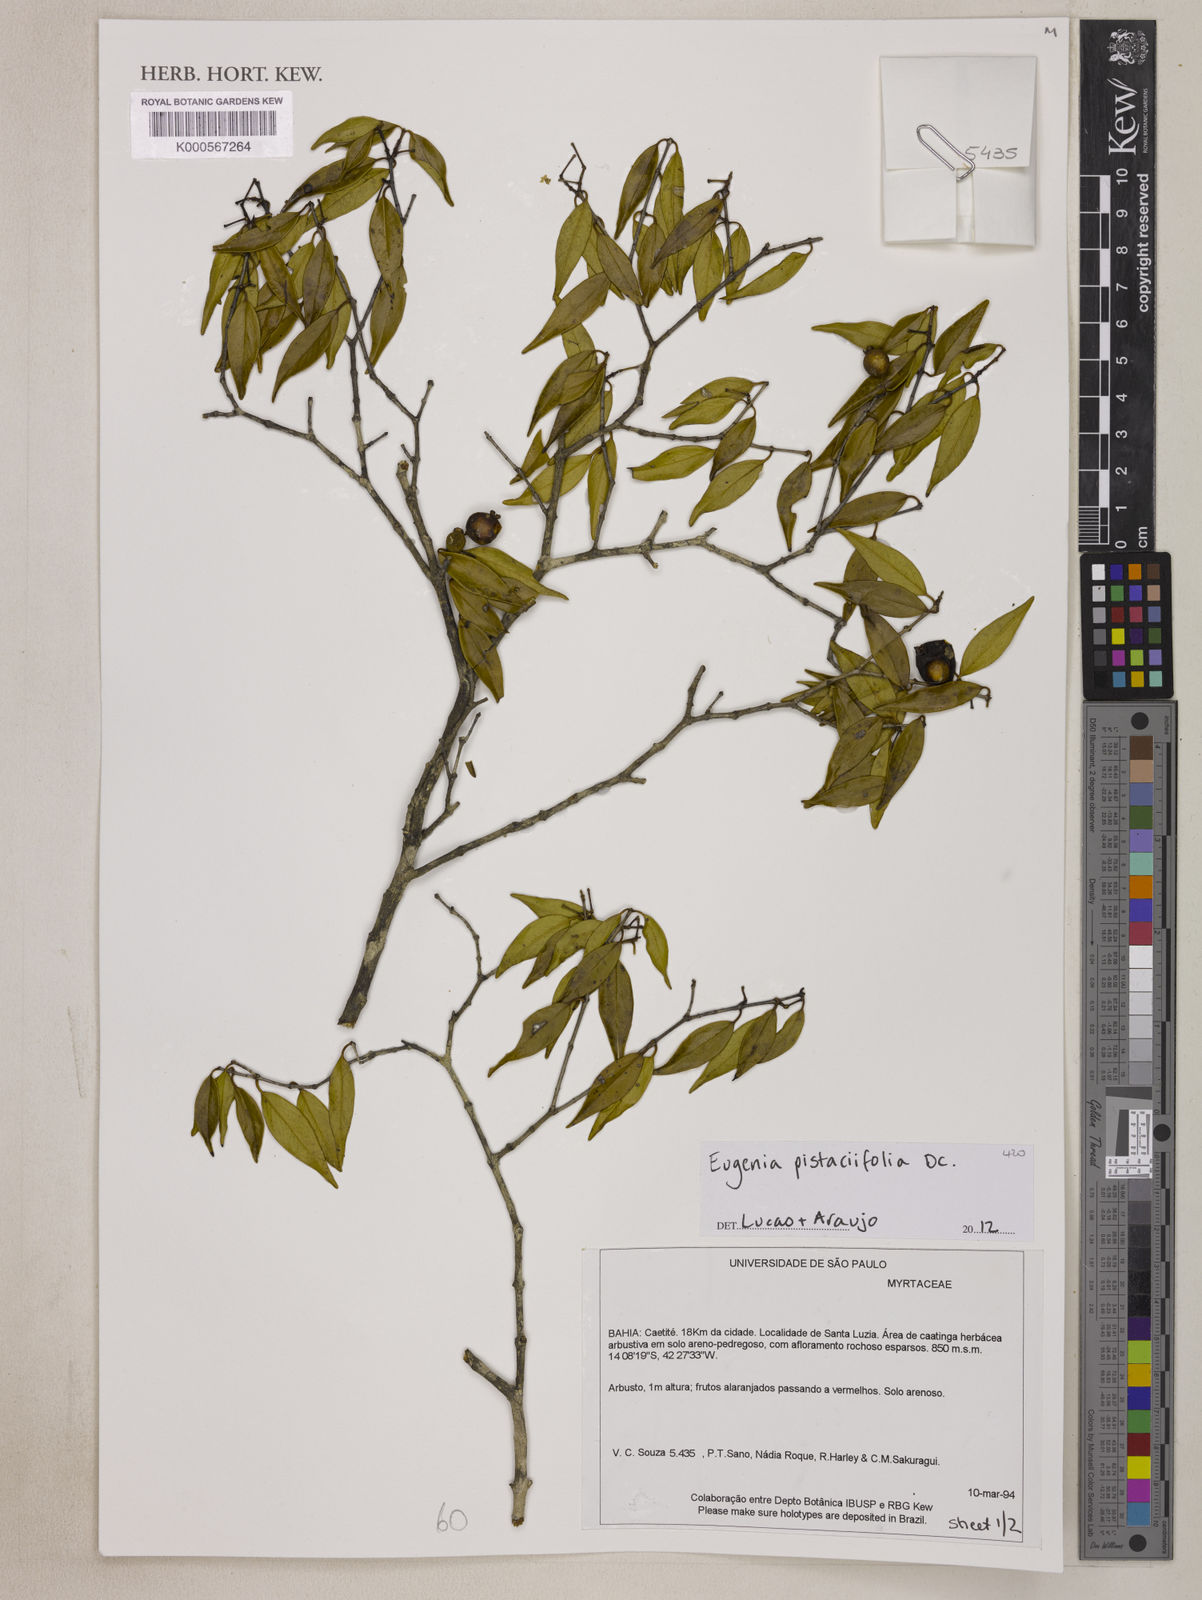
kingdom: Plantae
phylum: Tracheophyta
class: Magnoliopsida
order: Myrtales
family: Myrtaceae
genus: Eugenia
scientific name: Eugenia pistaciifolia
